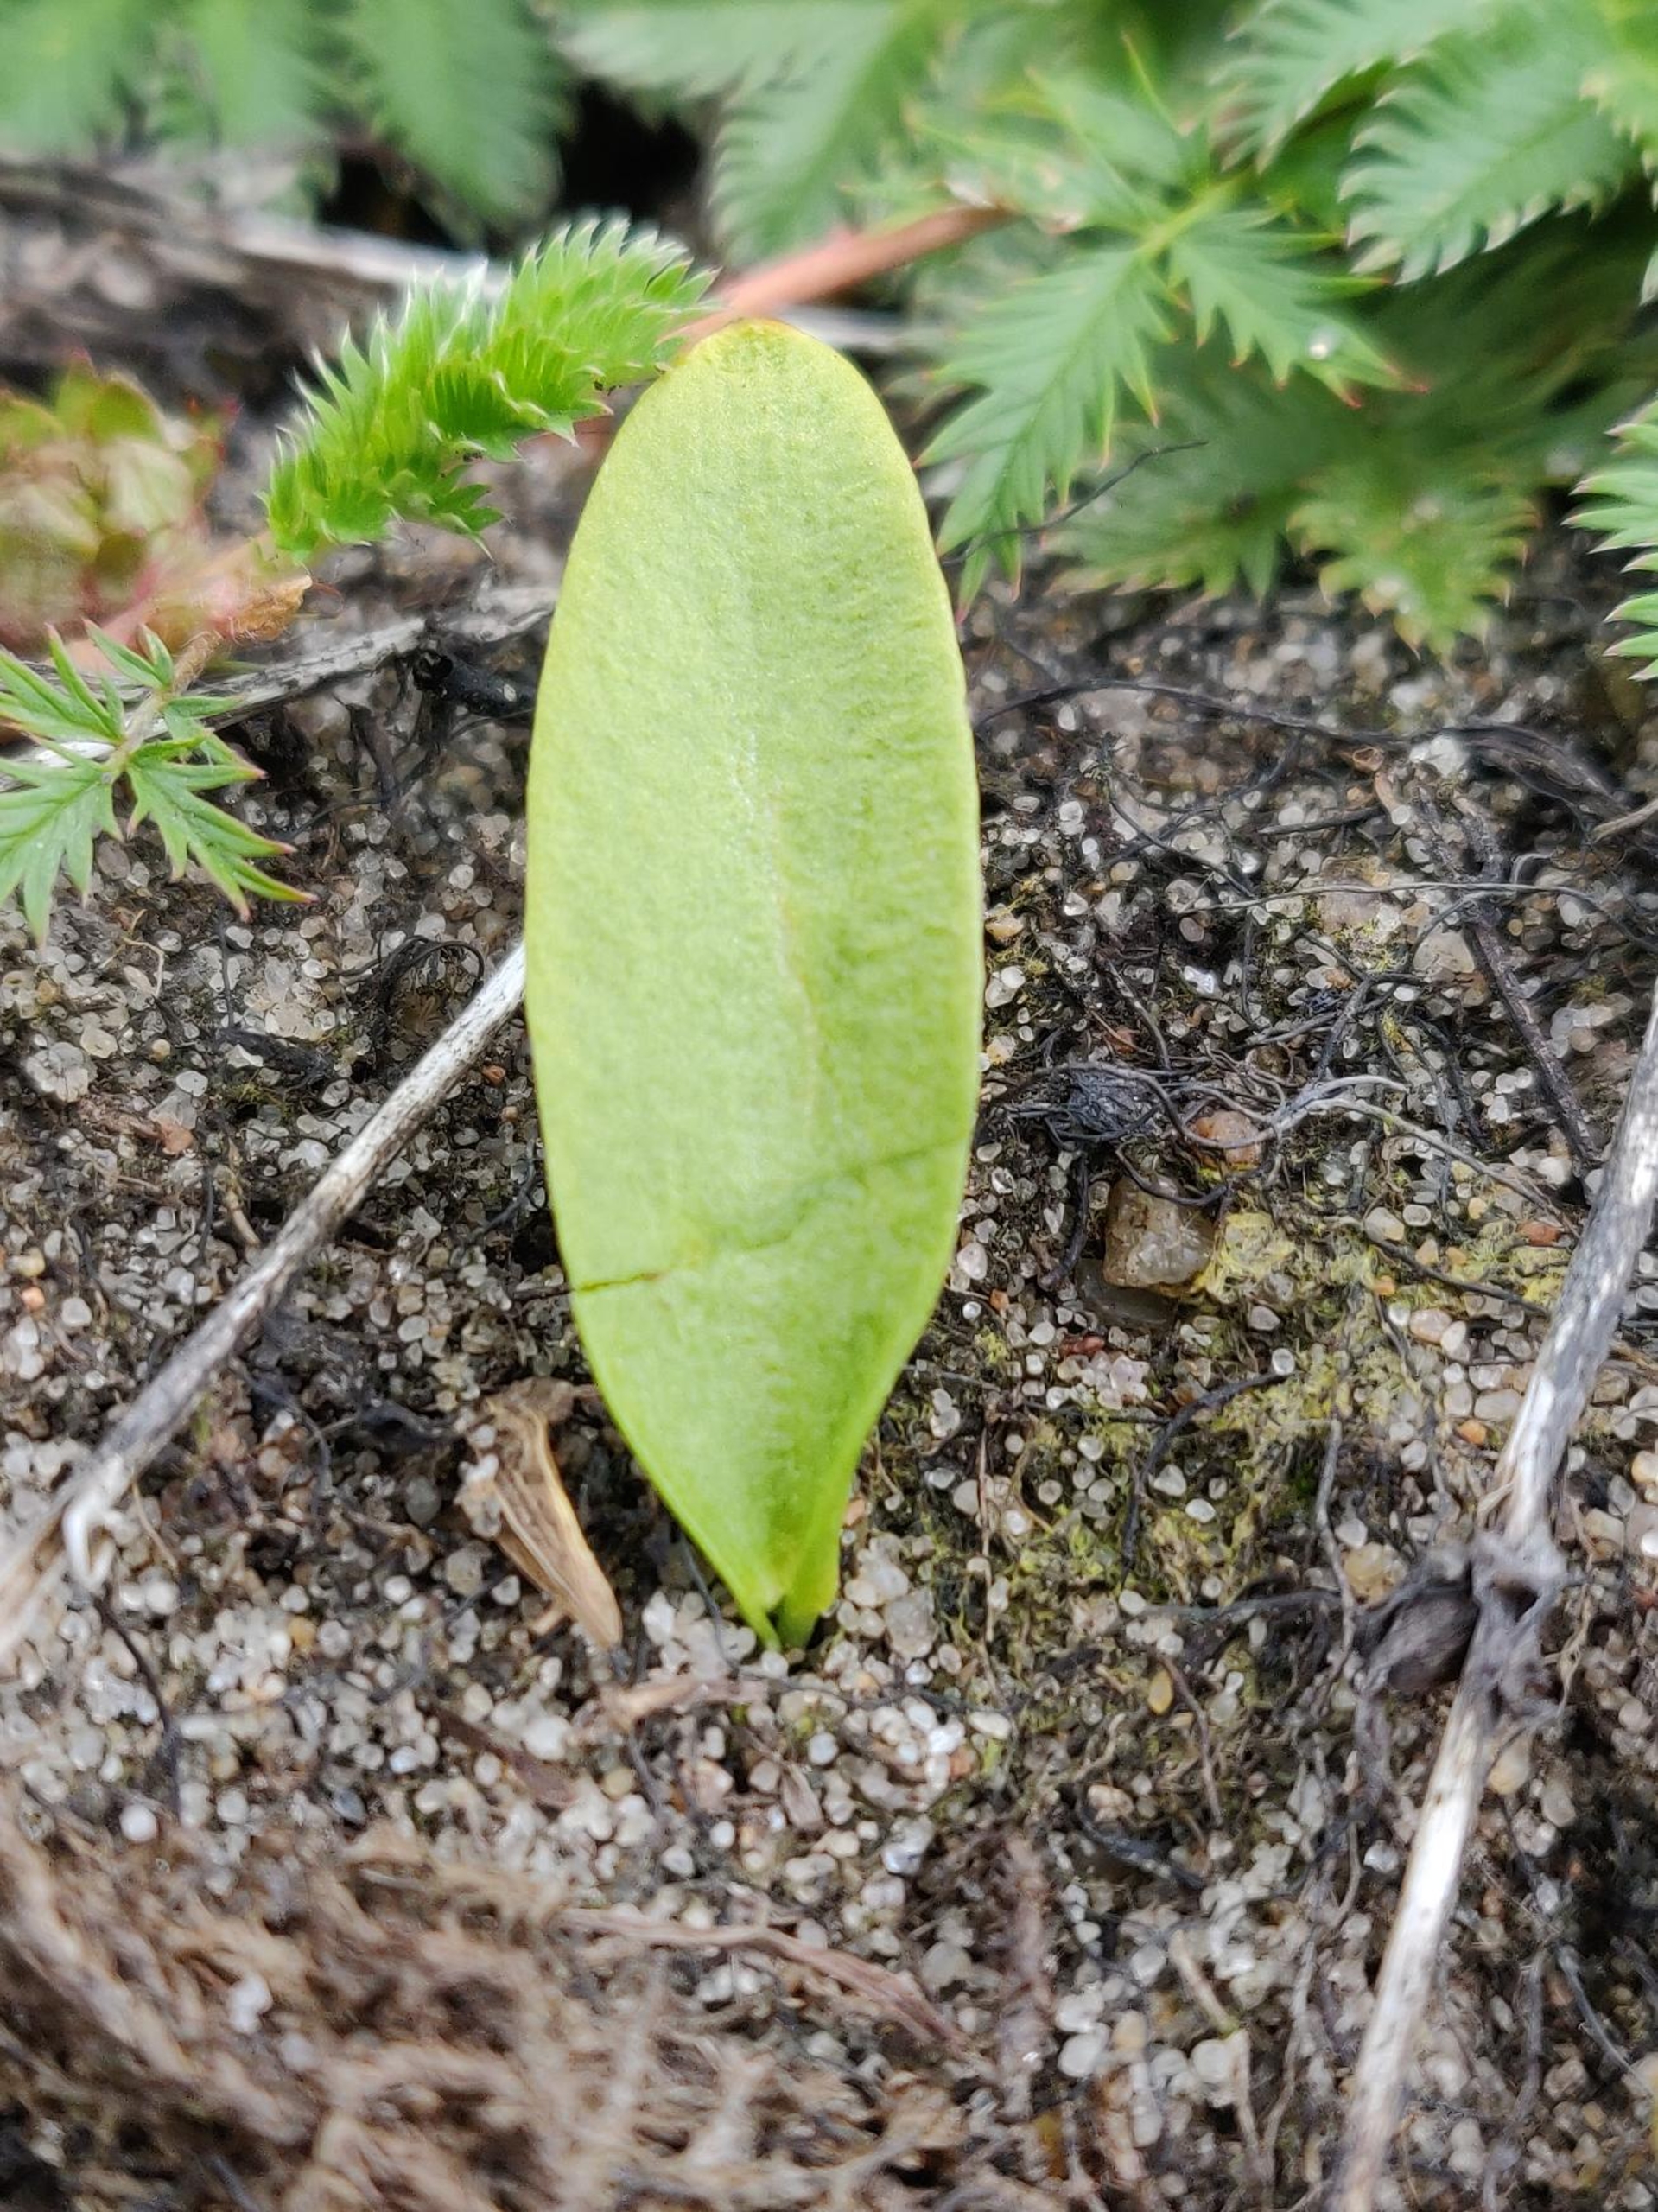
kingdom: Plantae
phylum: Tracheophyta
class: Polypodiopsida
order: Ophioglossales
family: Ophioglossaceae
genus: Ophioglossum
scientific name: Ophioglossum vulgatum
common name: Slangetunge
